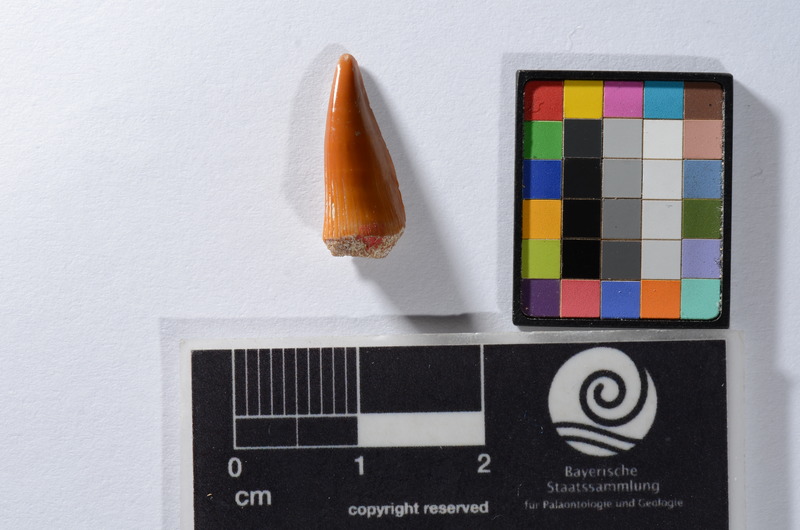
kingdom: Animalia
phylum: Chordata
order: Perciformes
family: Sphyraenidae
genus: Sphyraena
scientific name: Sphyraena Saurocephalus fajumensis
